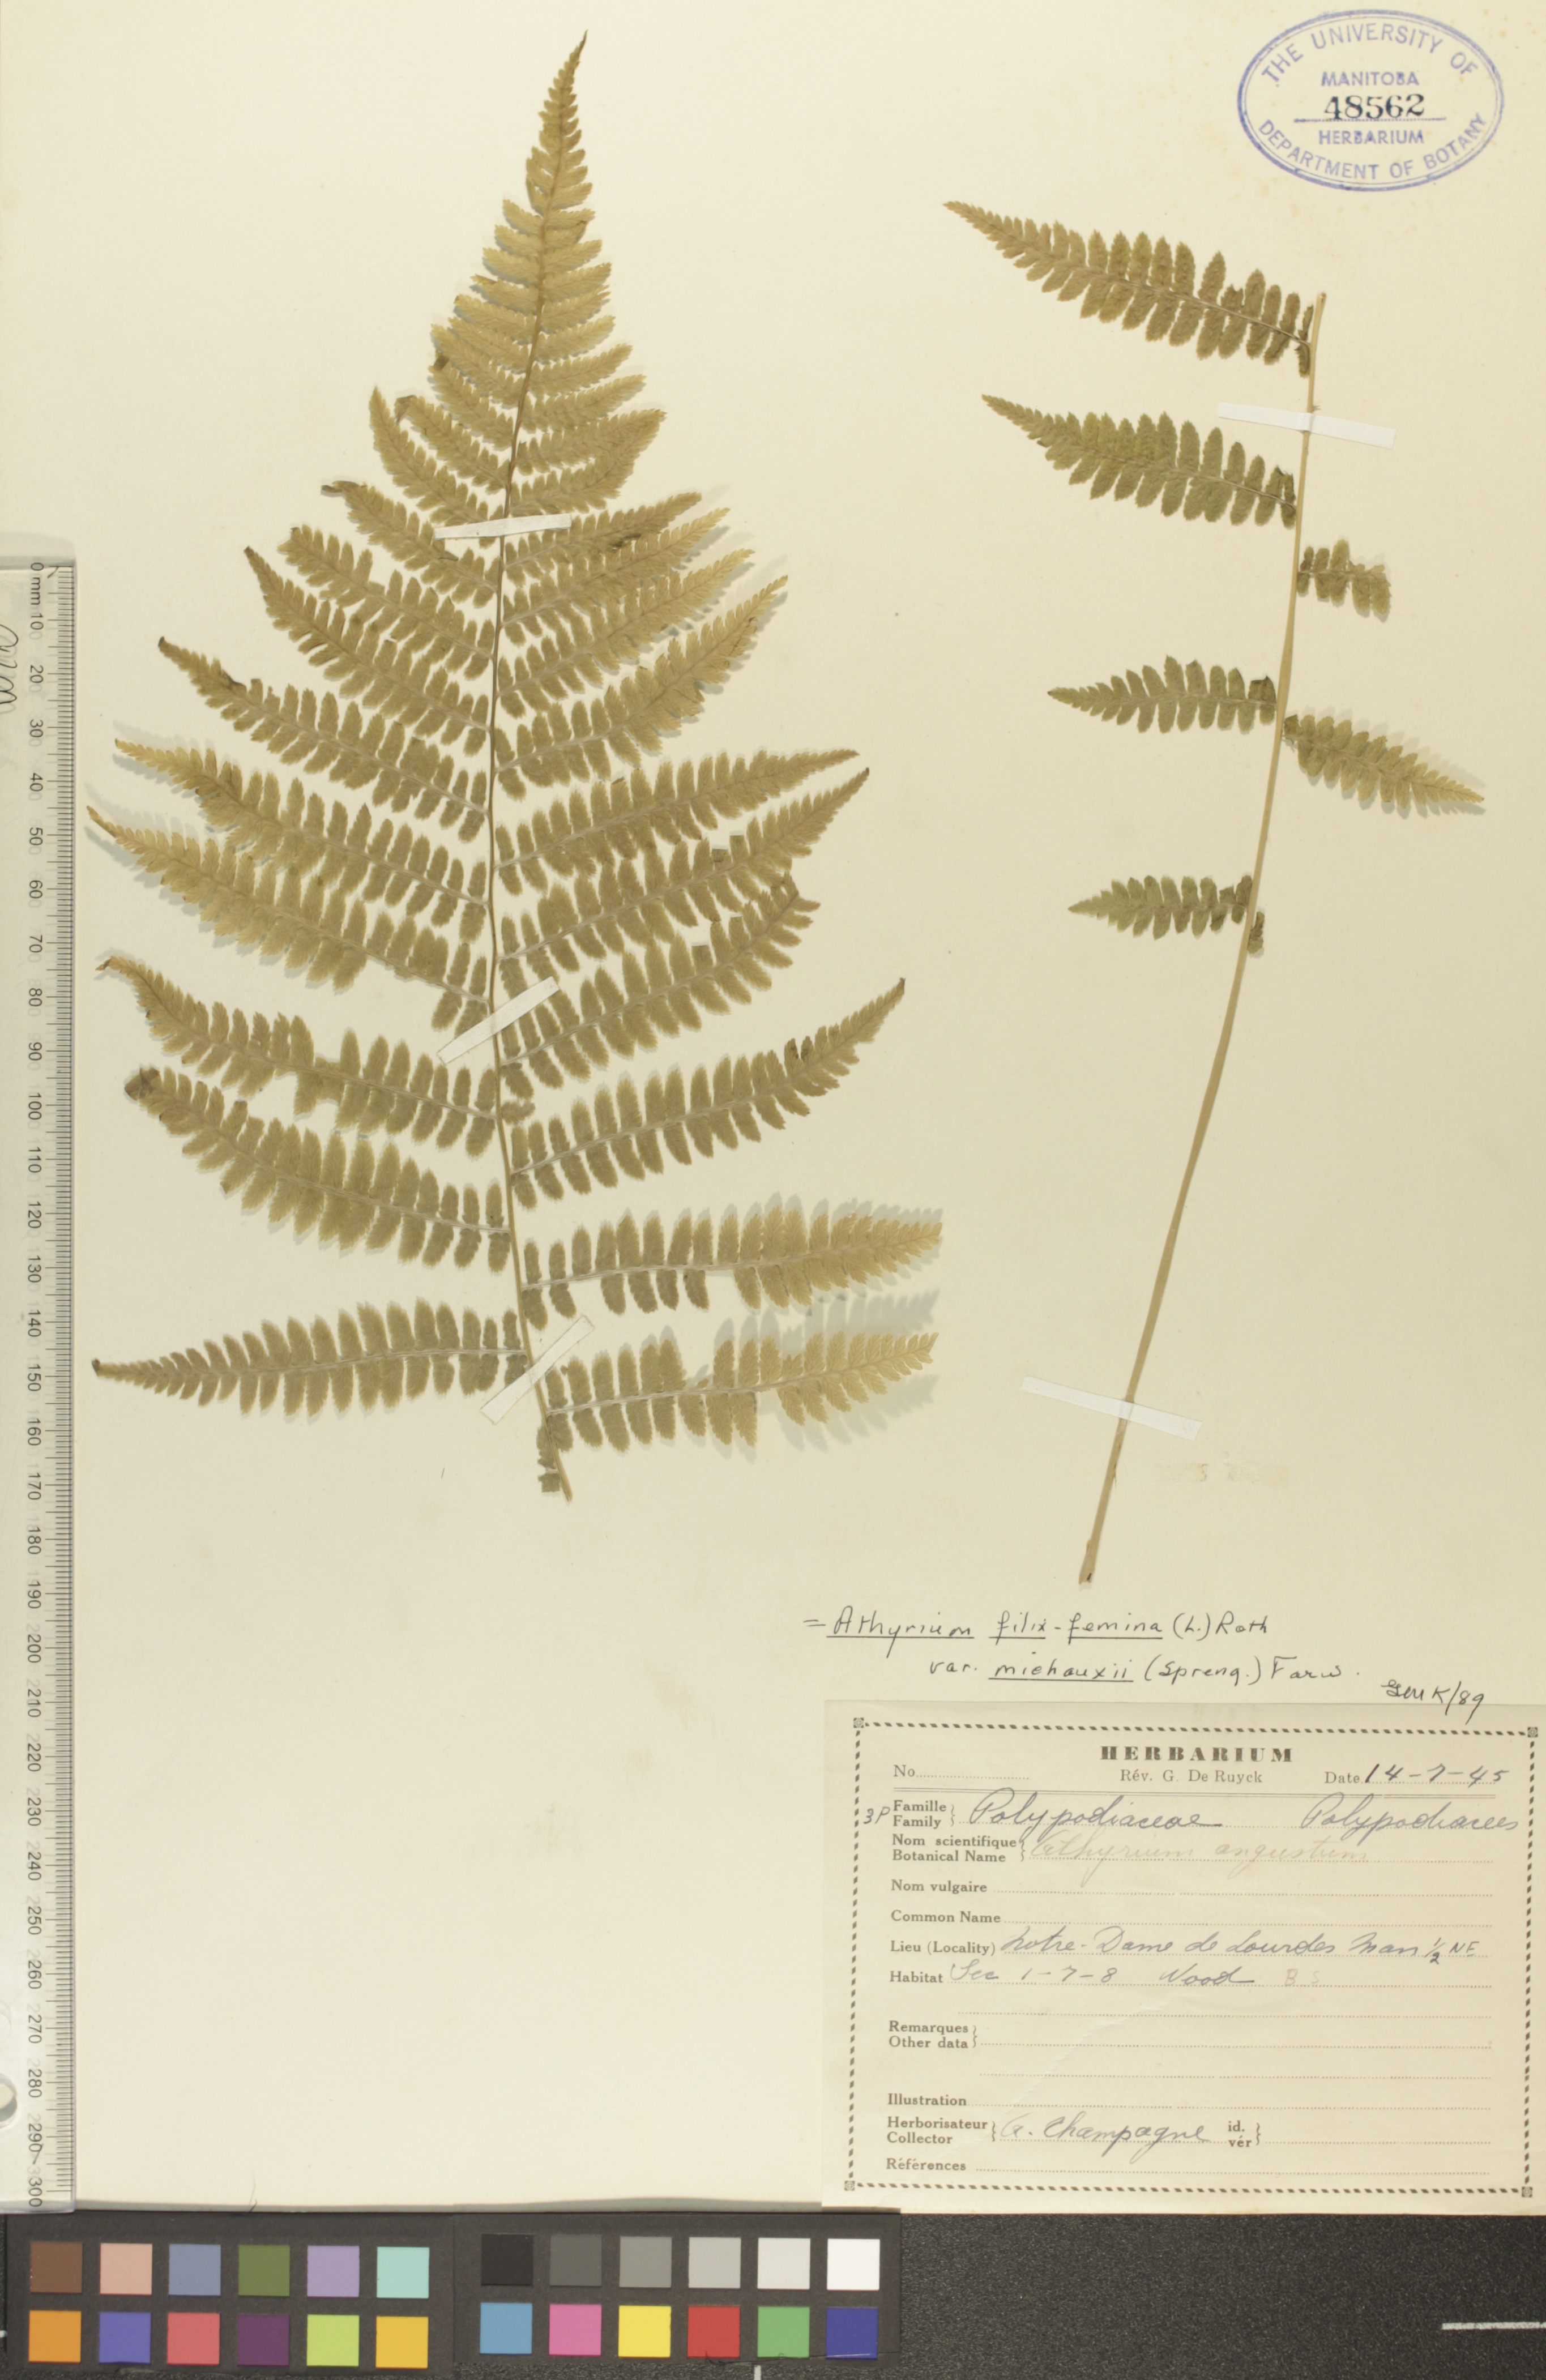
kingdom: Plantae
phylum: Tracheophyta
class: Polypodiopsida
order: Polypodiales
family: Athyriaceae
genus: Athyrium
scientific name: Athyrium angustum
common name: Northern lady fern
